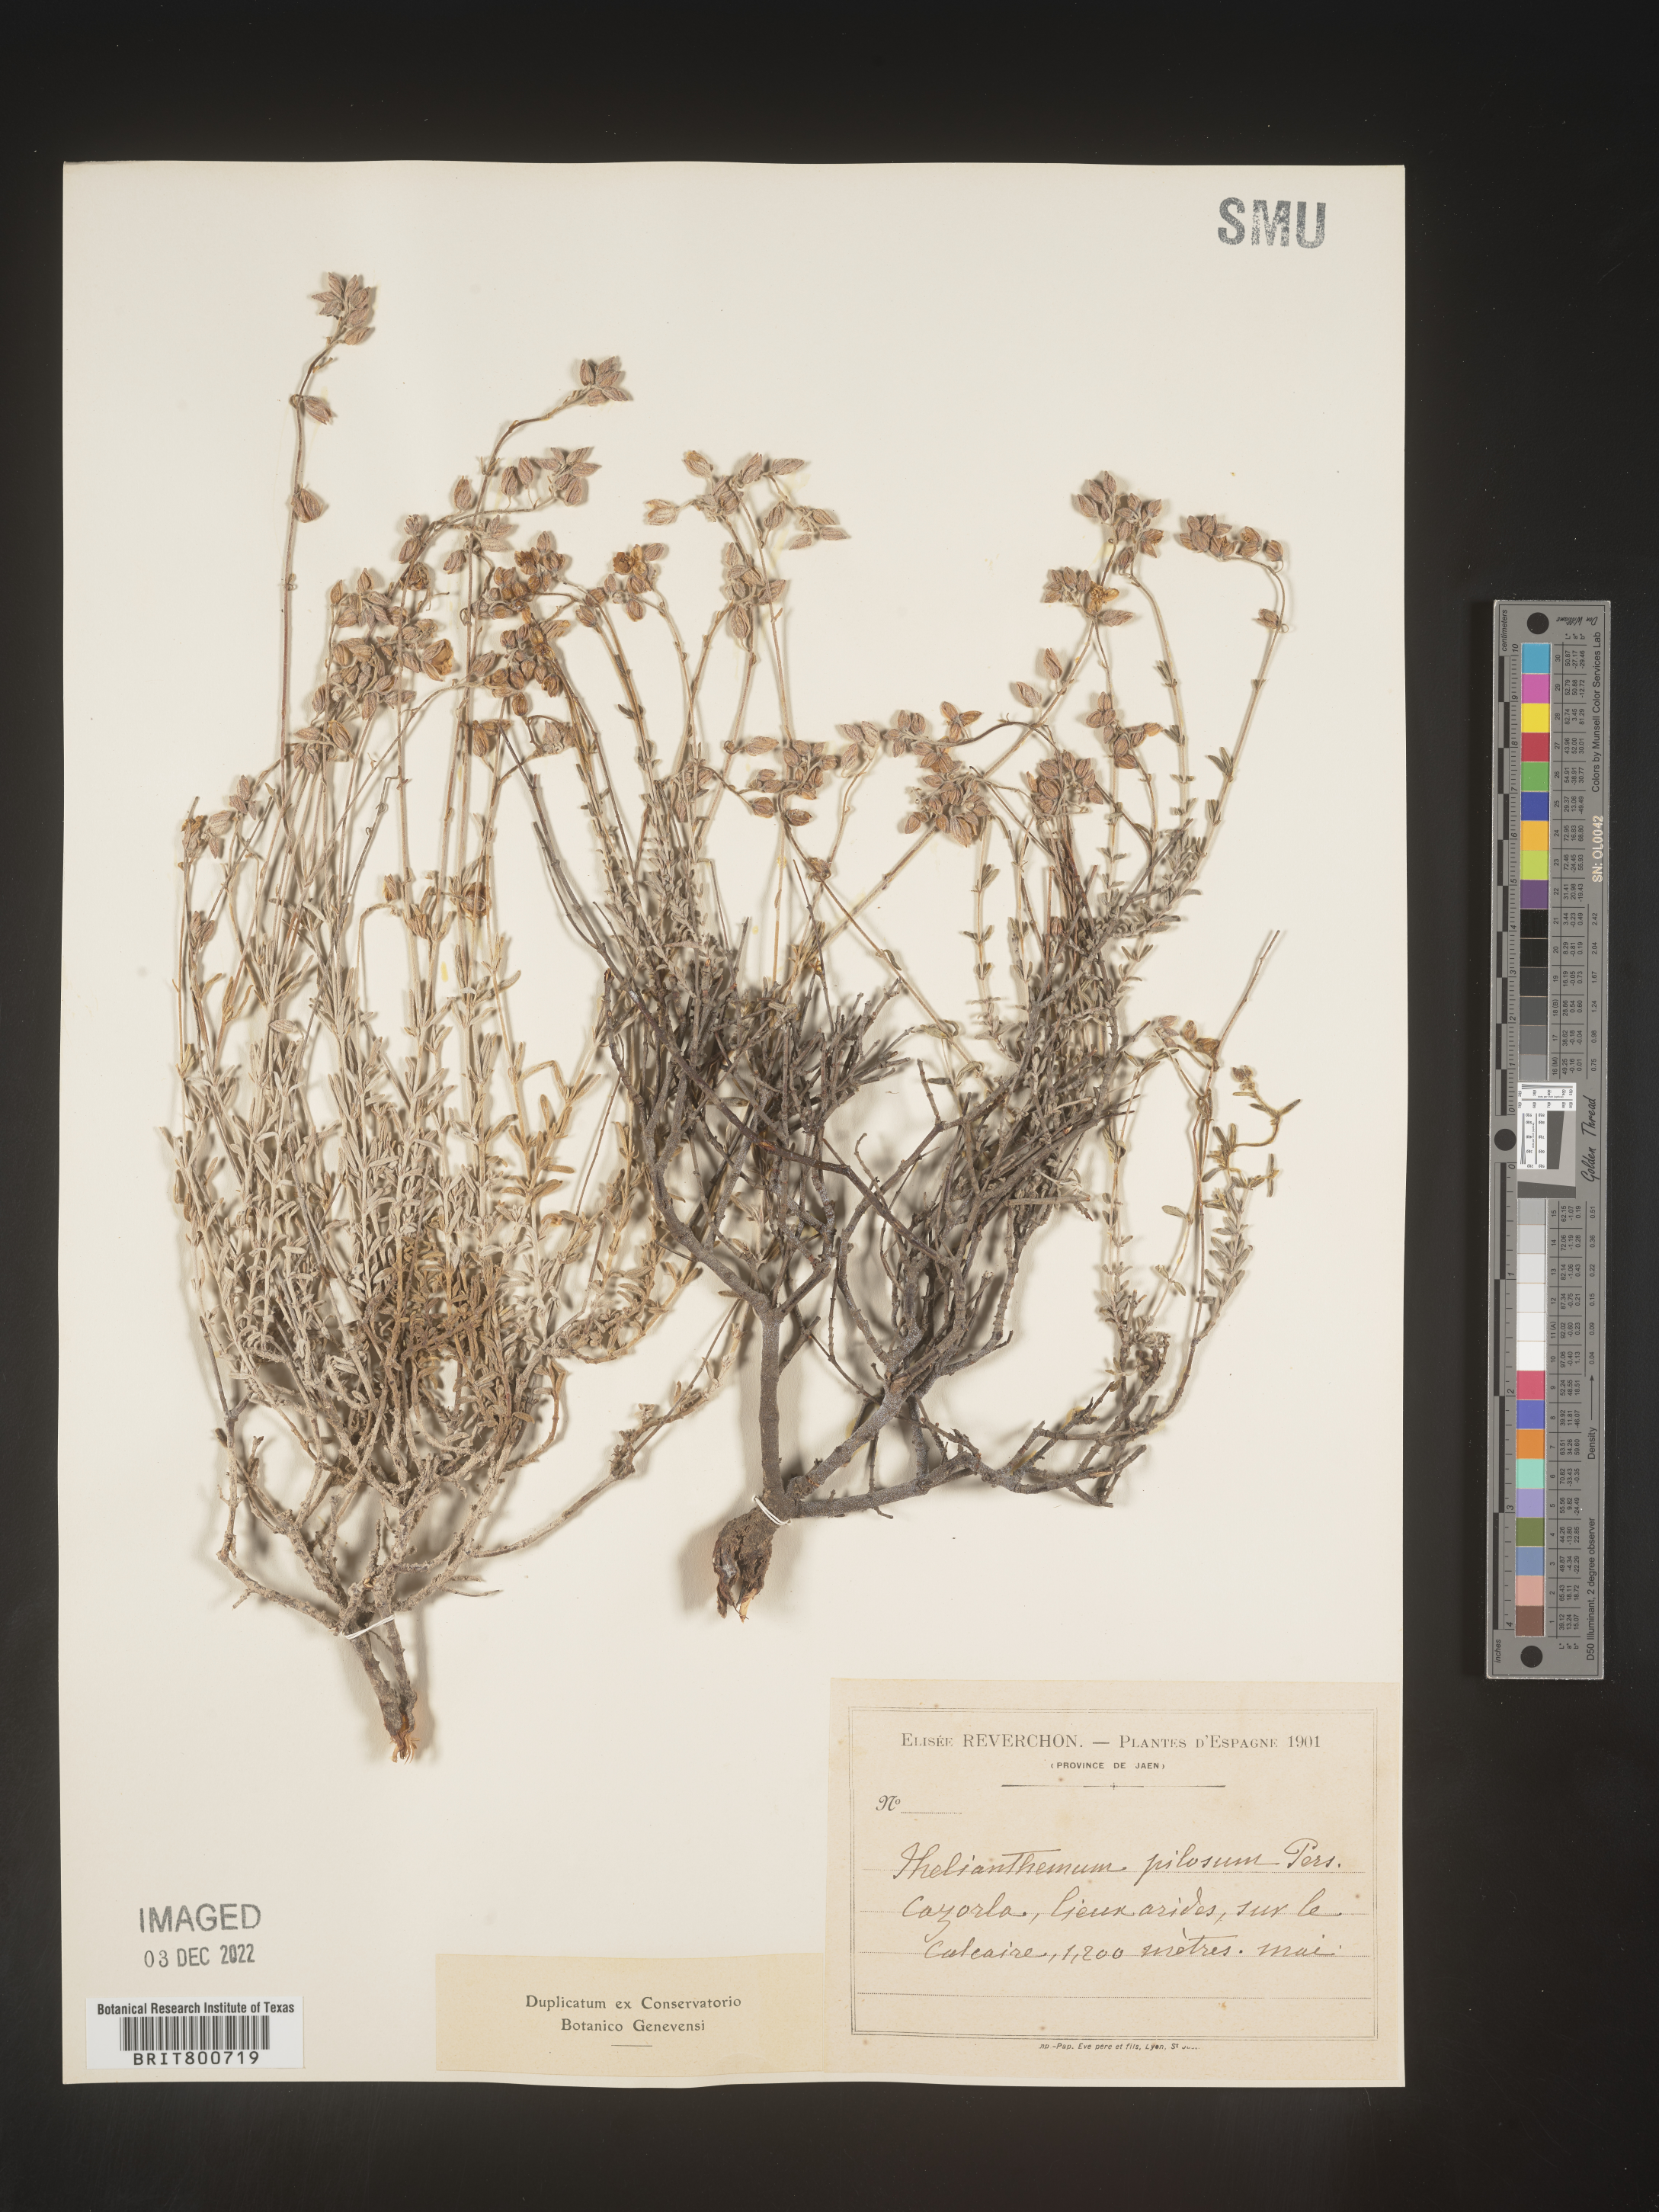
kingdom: Plantae
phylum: Tracheophyta
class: Magnoliopsida
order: Malvales
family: Cistaceae
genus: Helianthemum
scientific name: Helianthemum
